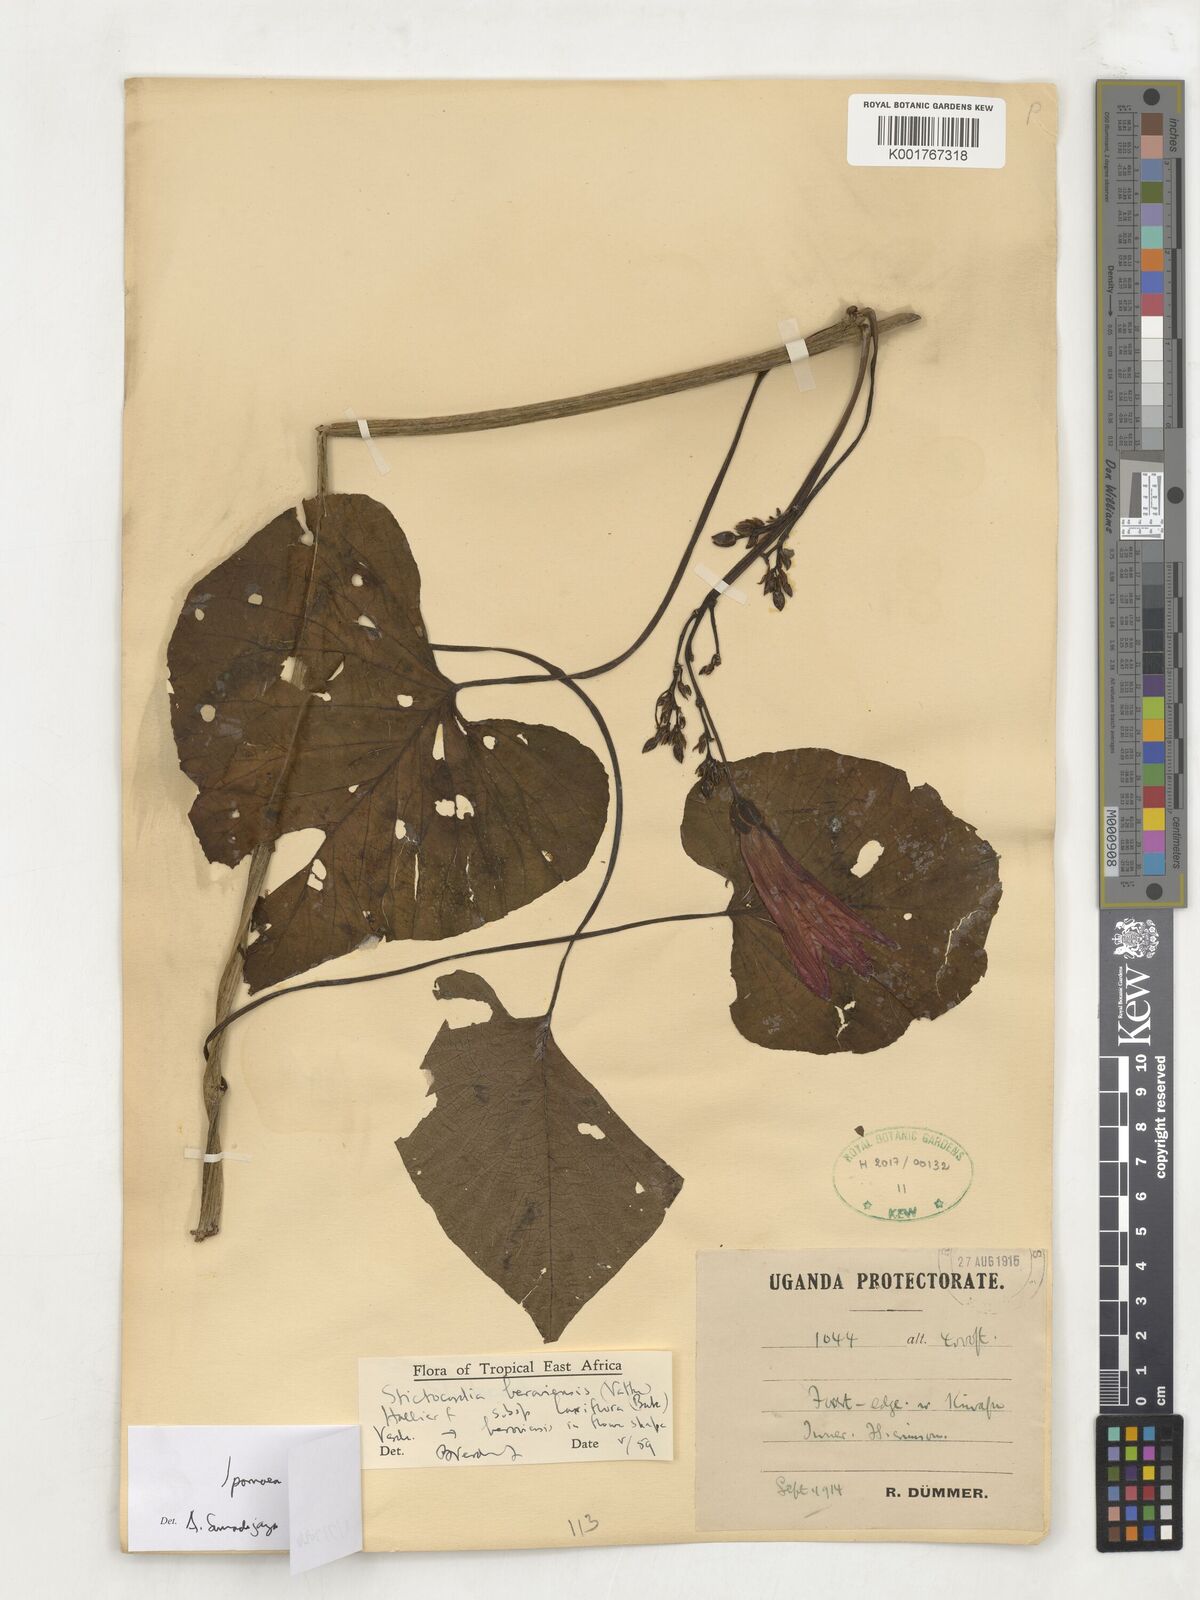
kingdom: Plantae
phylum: Tracheophyta
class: Magnoliopsida
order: Solanales
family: Convolvulaceae
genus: Stictocardia
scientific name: Stictocardia laxiflora
